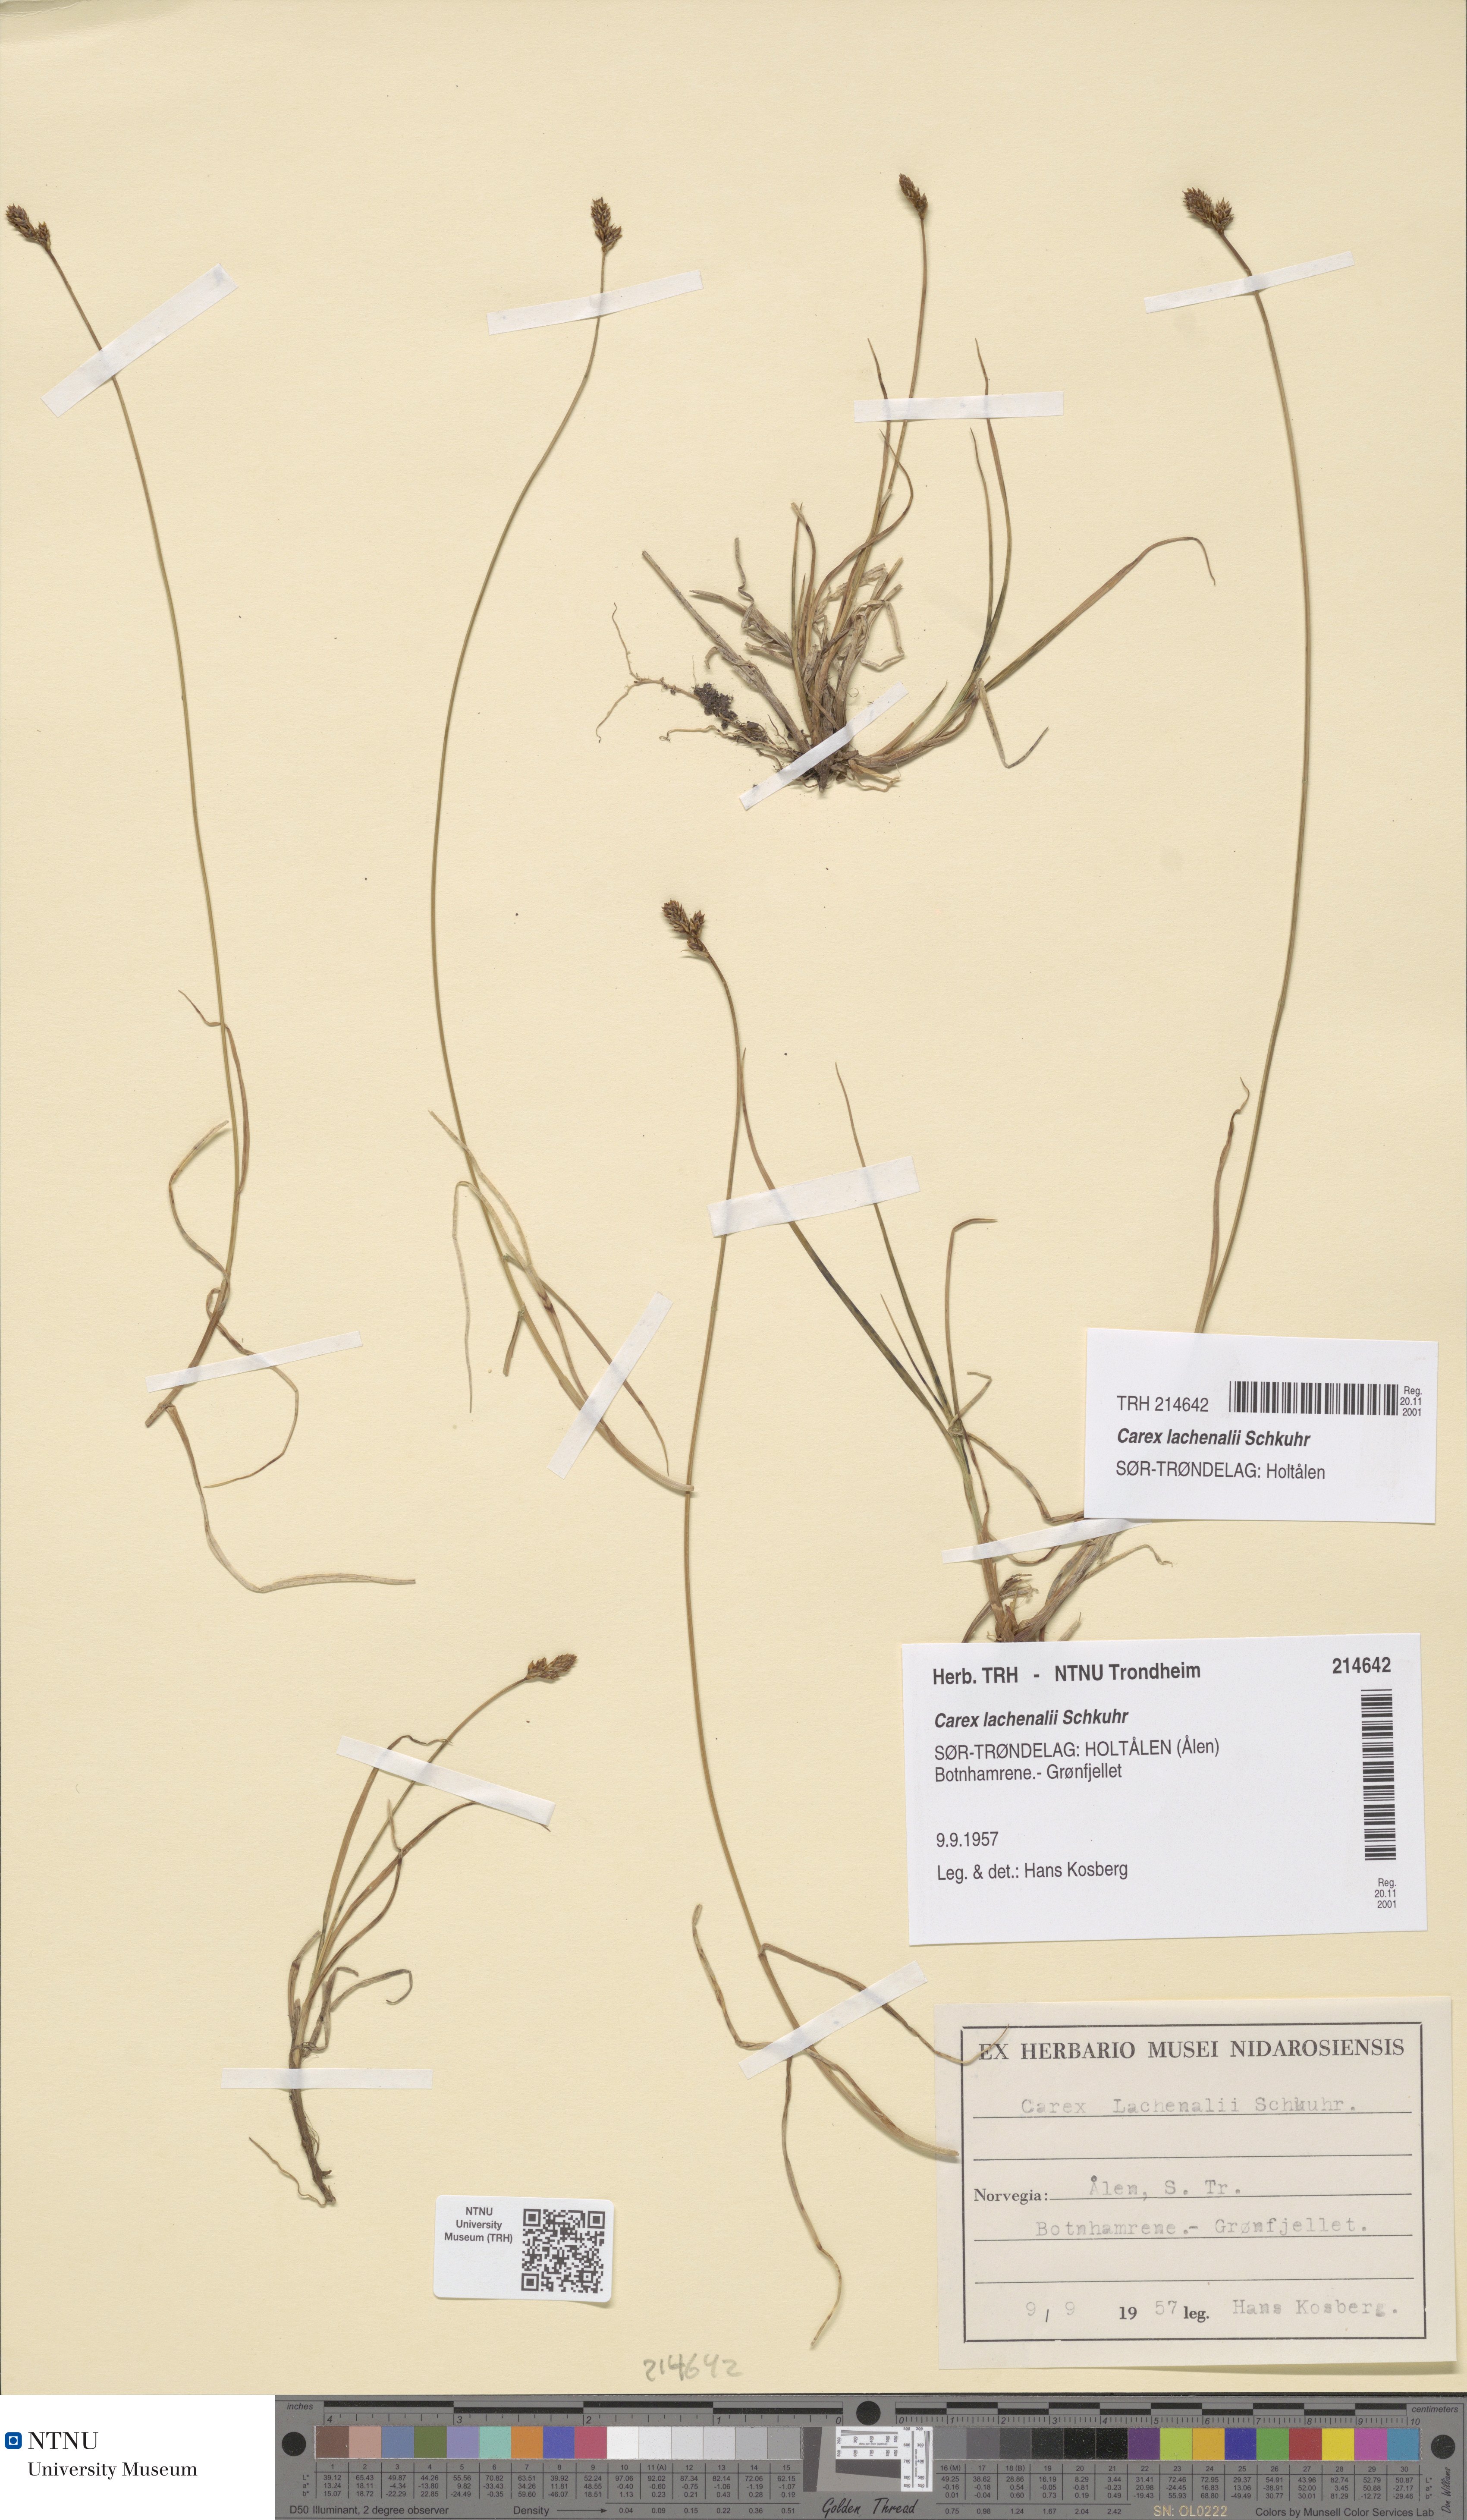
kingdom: Plantae
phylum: Tracheophyta
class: Liliopsida
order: Poales
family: Cyperaceae
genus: Carex
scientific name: Carex lachenalii
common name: Hare's-foot sedge
